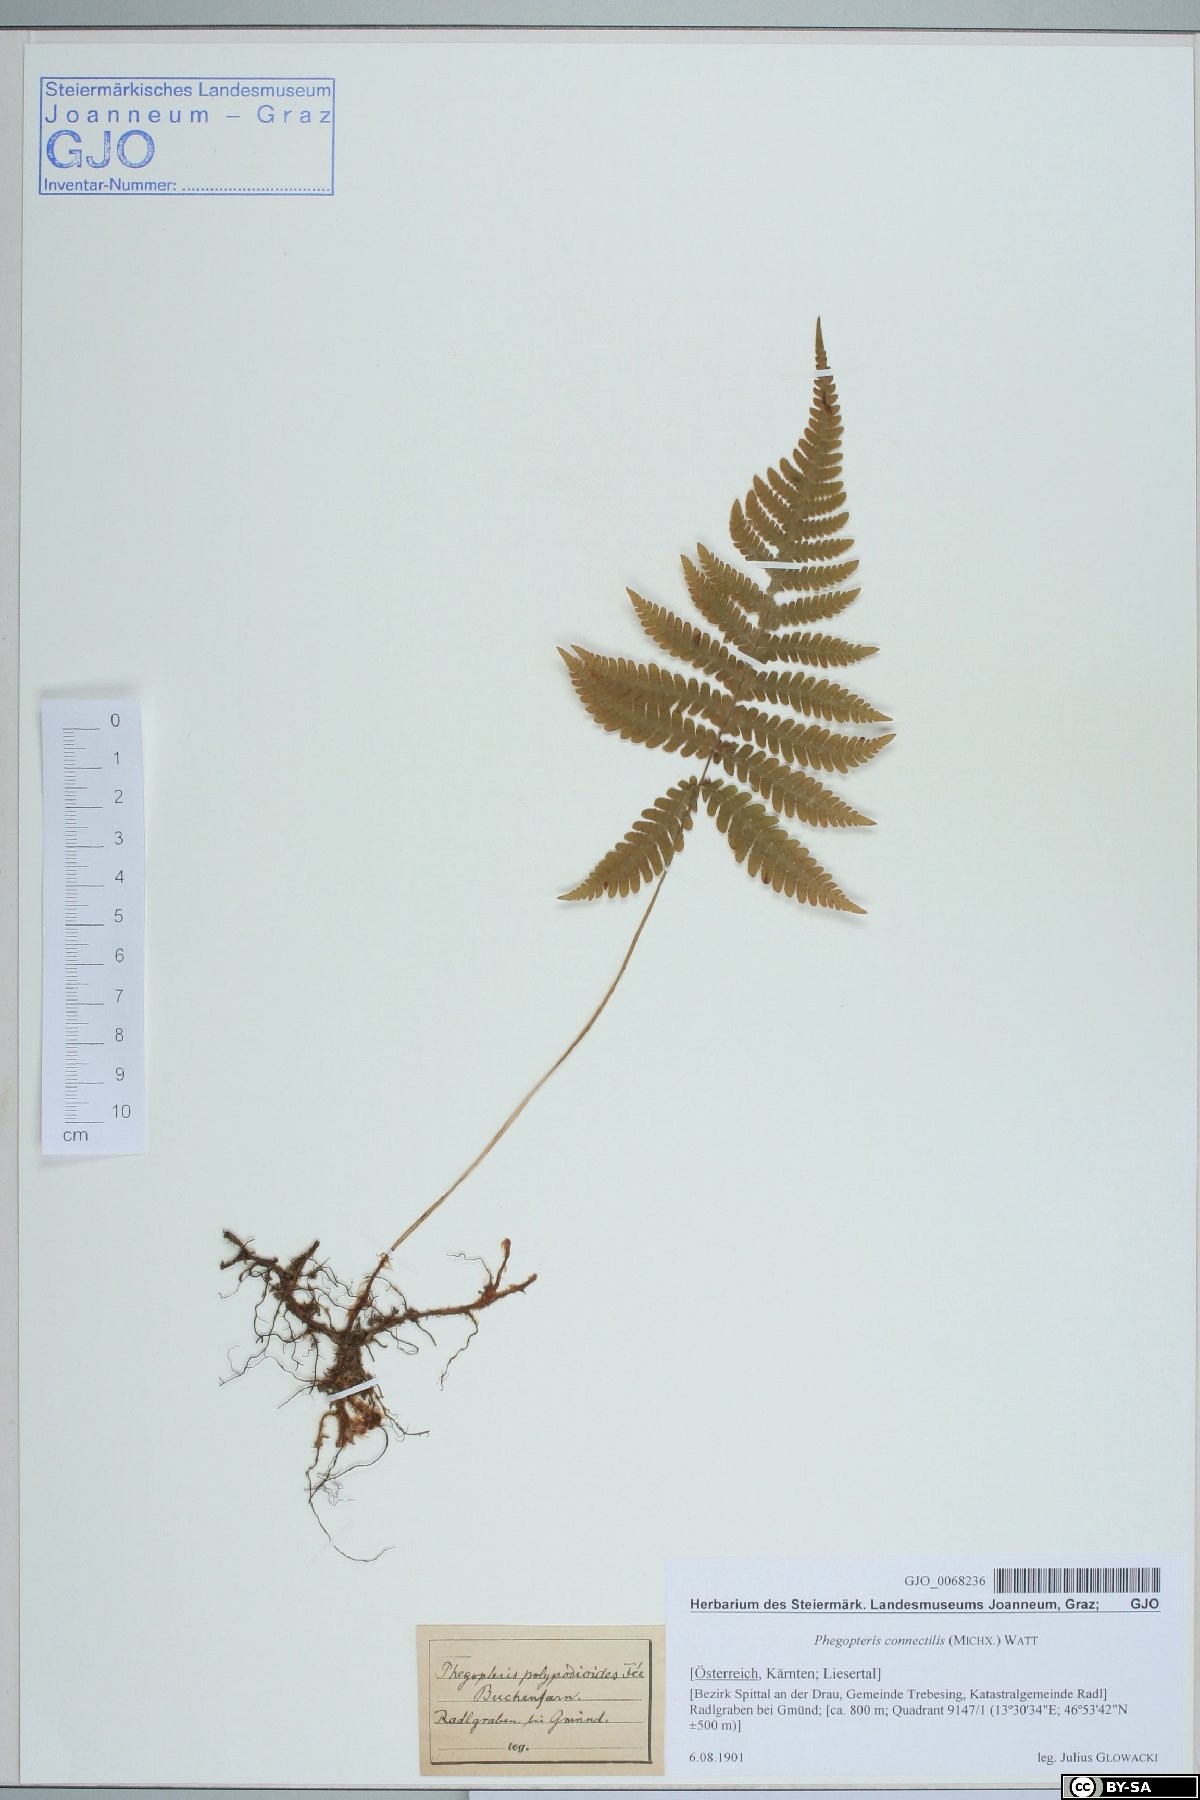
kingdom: Plantae
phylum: Tracheophyta
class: Polypodiopsida
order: Polypodiales
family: Thelypteridaceae
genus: Phegopteris
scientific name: Phegopteris connectilis
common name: Beech fern
